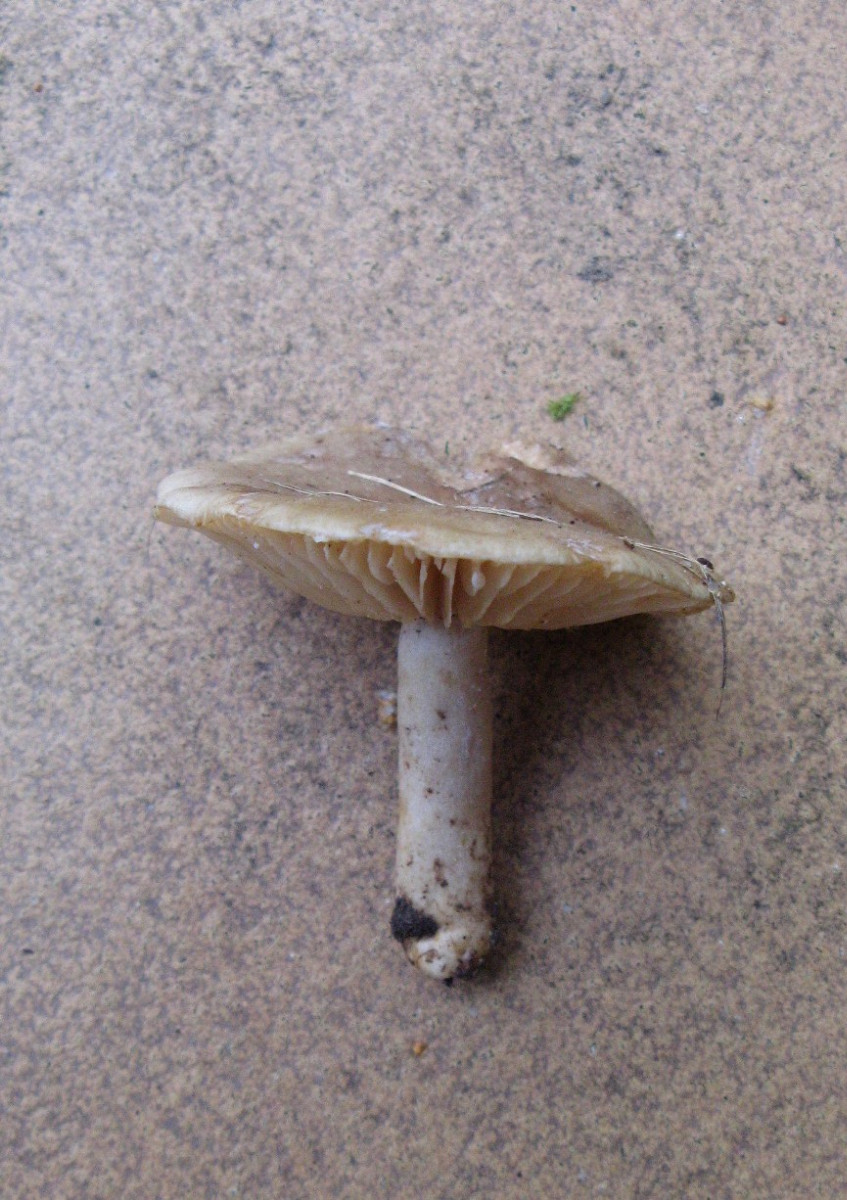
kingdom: Fungi
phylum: Basidiomycota
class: Agaricomycetes
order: Russulales
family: Russulaceae
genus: Lactarius
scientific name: Lactarius pyrogalus
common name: hassel-mælkehat
